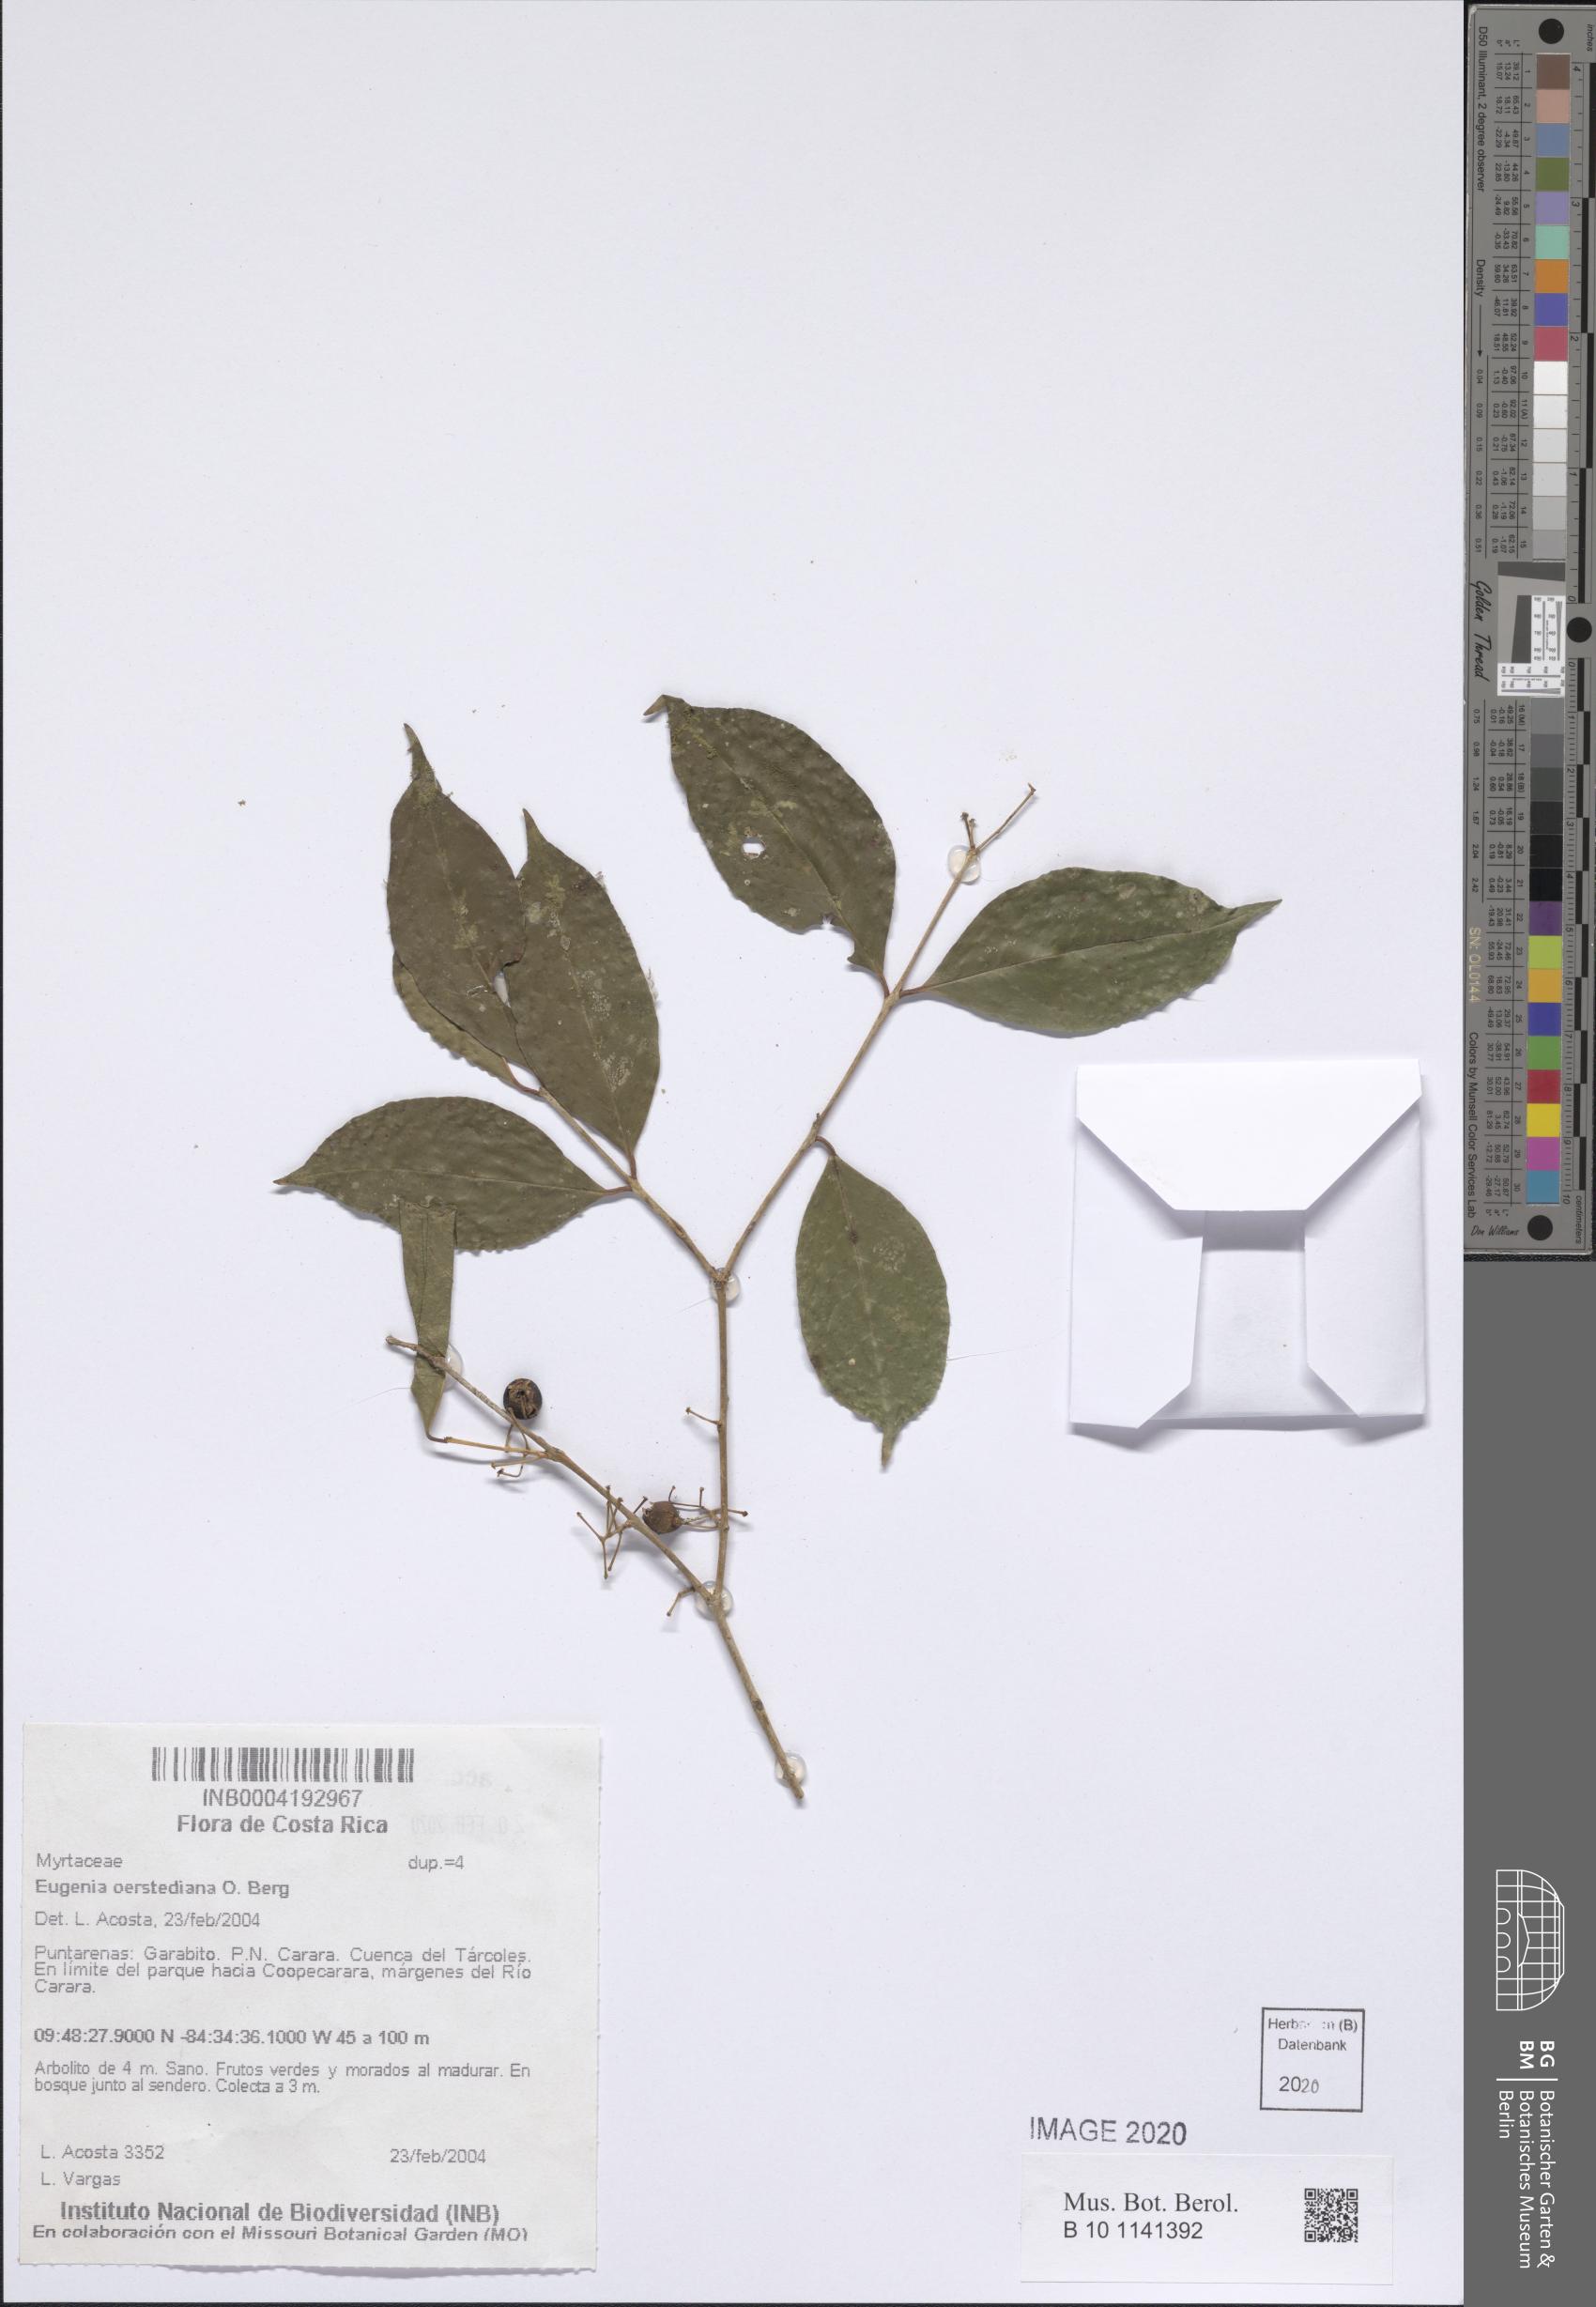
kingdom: Plantae
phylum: Tracheophyta
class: Magnoliopsida
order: Myrtales
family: Myrtaceae
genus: Eugenia
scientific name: Eugenia oerstediana
